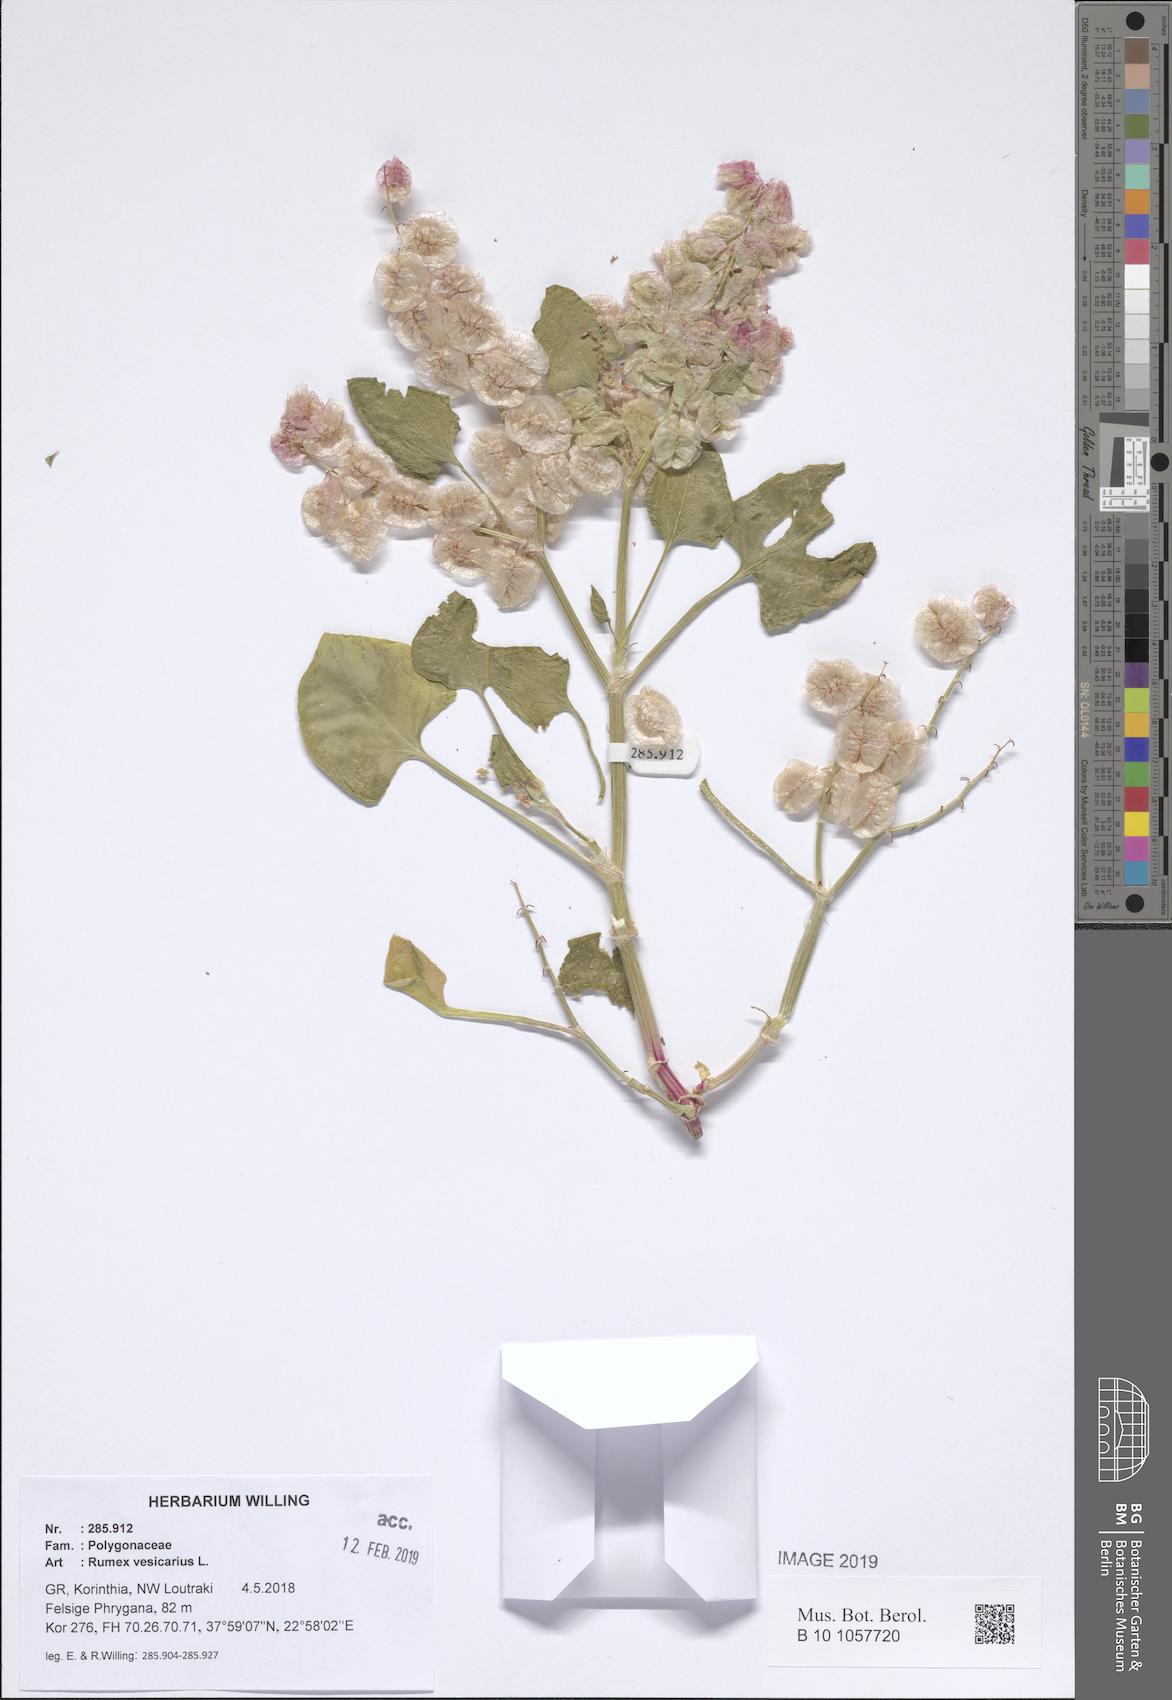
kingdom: Plantae
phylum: Tracheophyta
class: Magnoliopsida
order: Caryophyllales
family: Polygonaceae
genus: Rumex
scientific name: Rumex vesicarius
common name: Bladder dock
